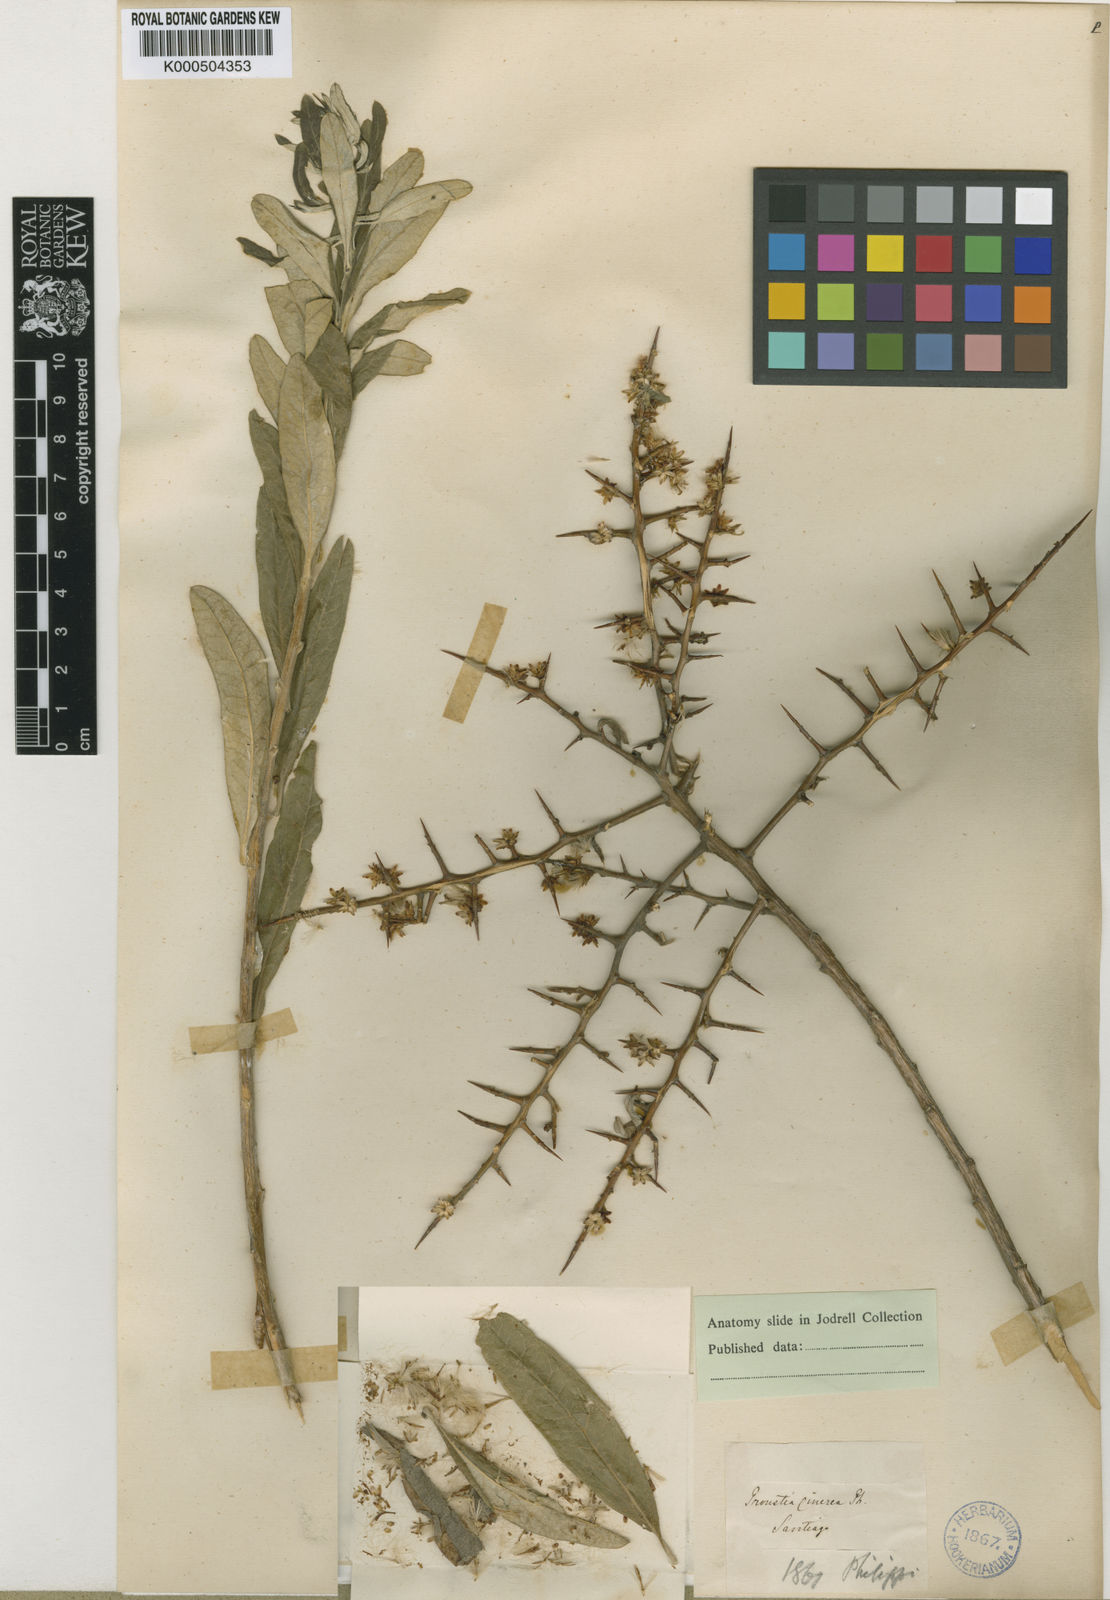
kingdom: Plantae
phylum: Tracheophyta
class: Magnoliopsida
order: Asterales
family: Asteraceae
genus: Proustia
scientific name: Proustia cuneifolia
